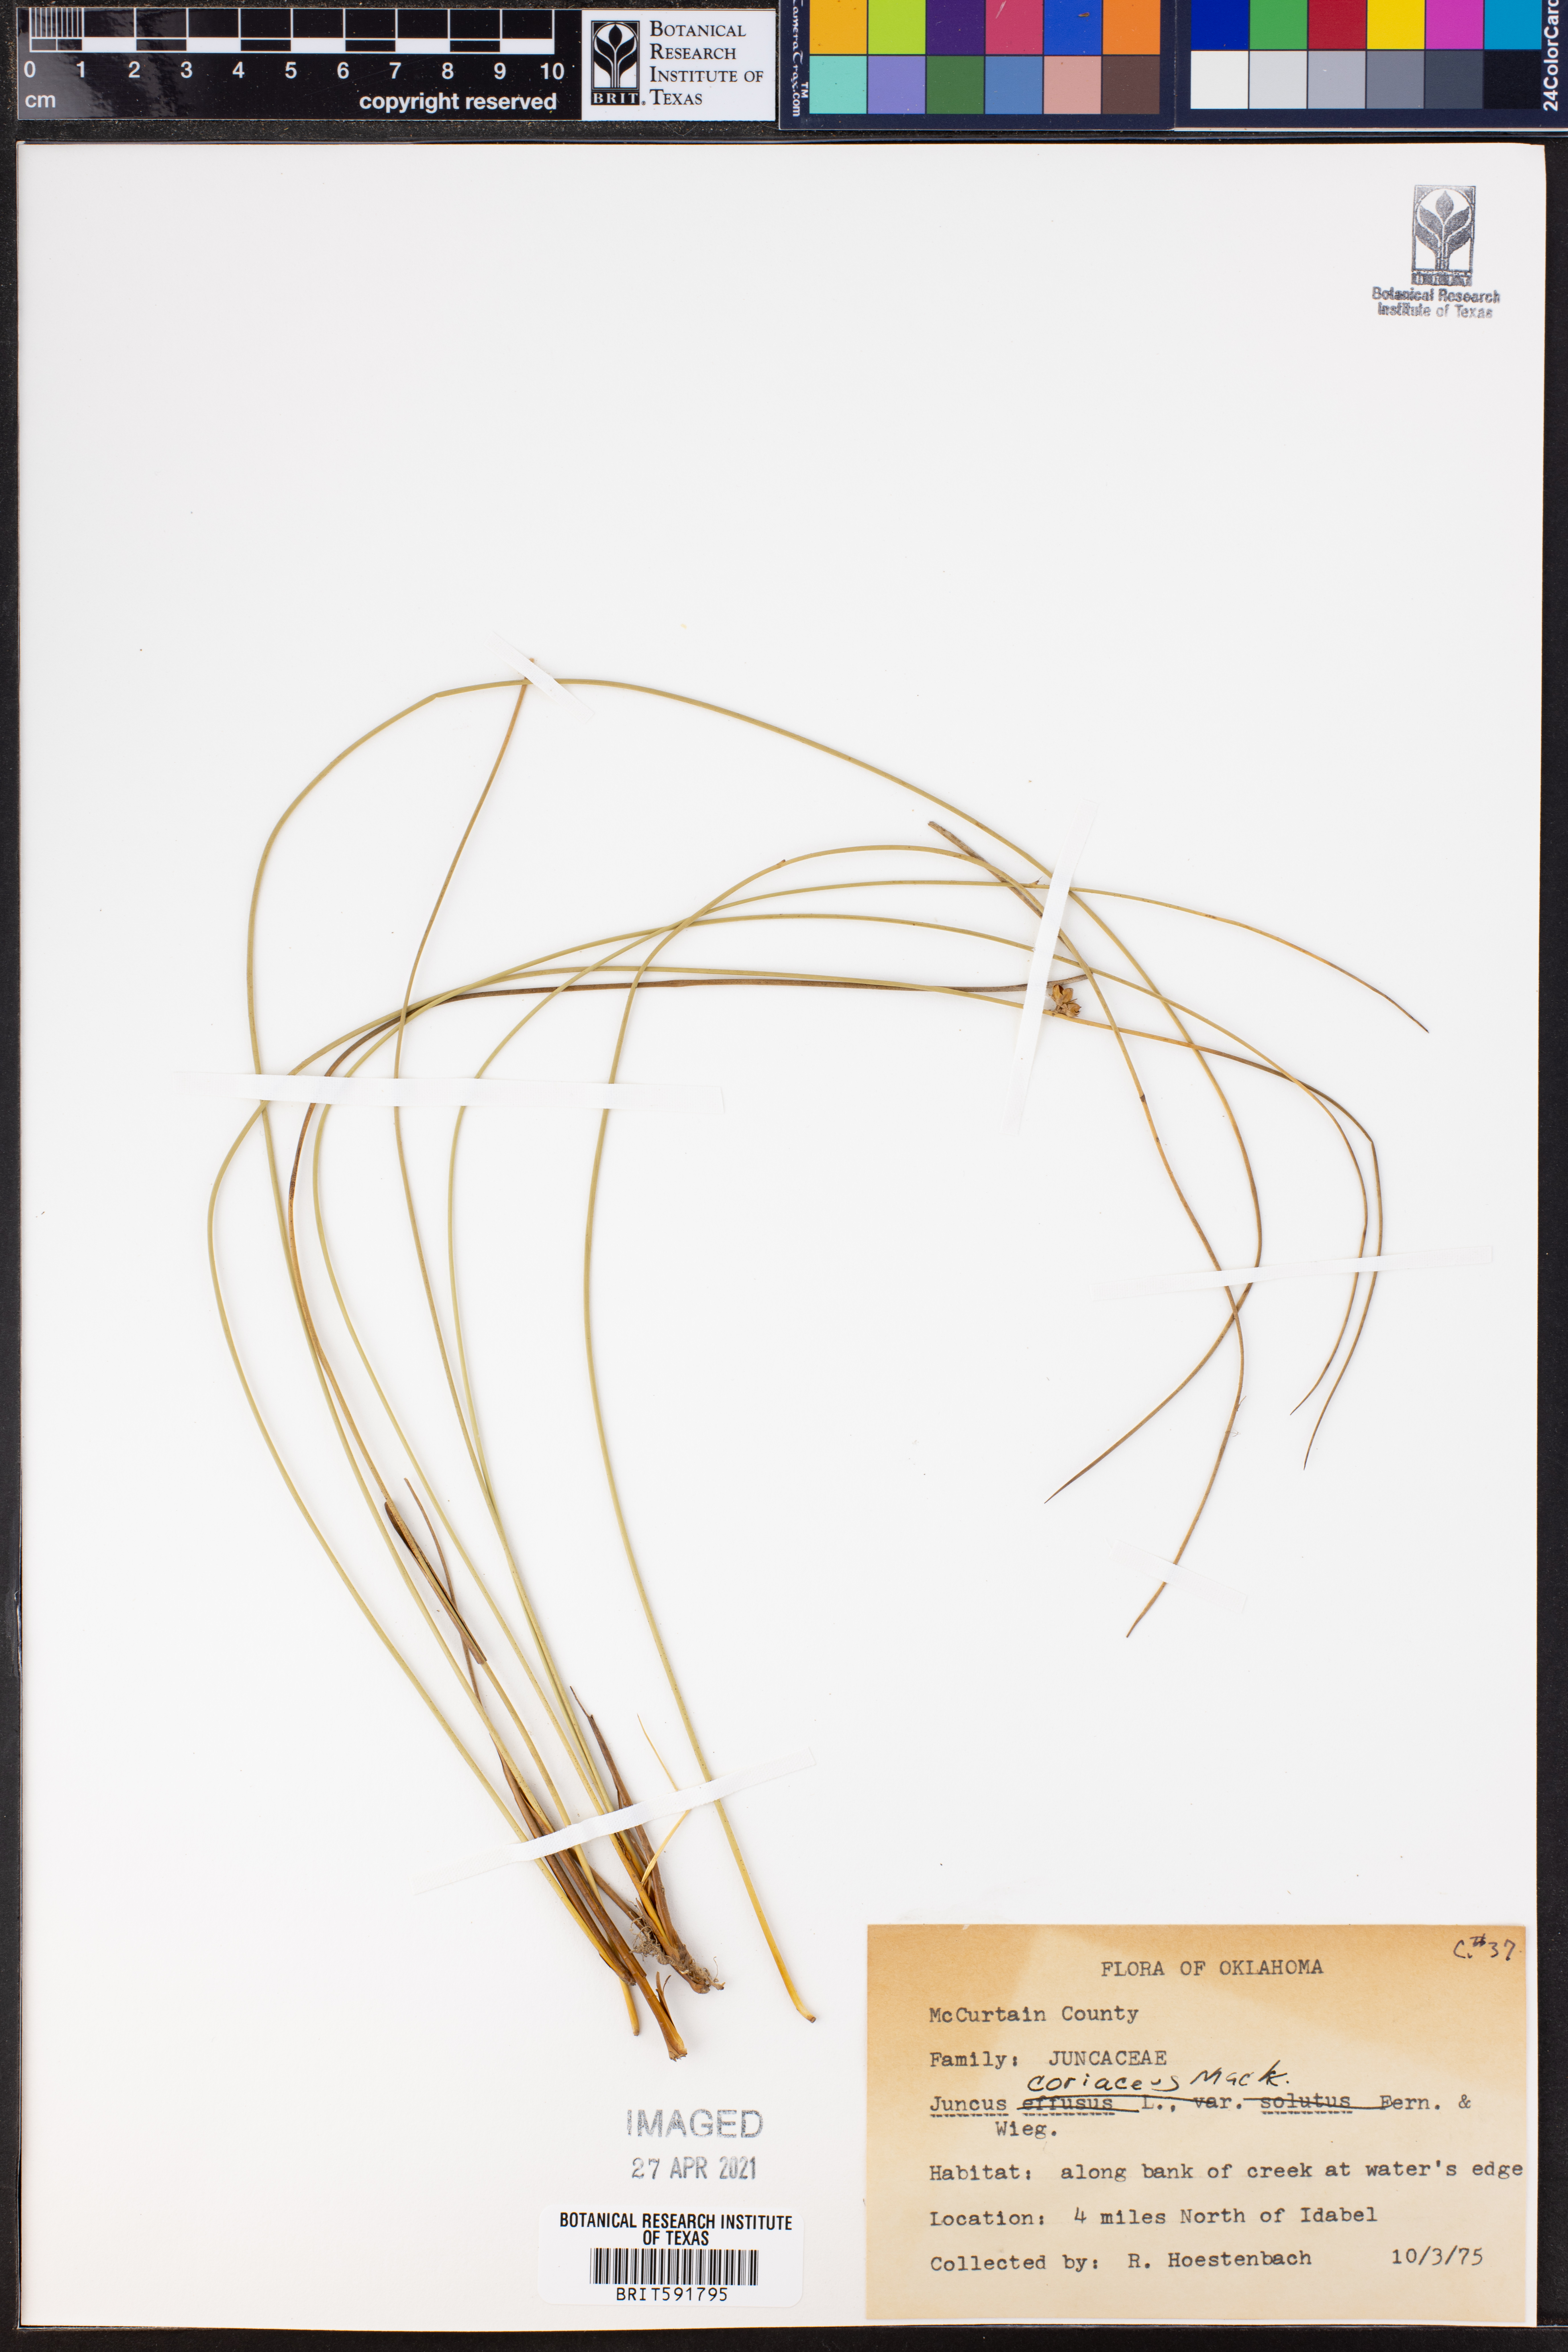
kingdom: Plantae
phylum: Tracheophyta
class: Liliopsida
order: Poales
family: Juncaceae
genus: Juncus
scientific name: Juncus coriaceus
